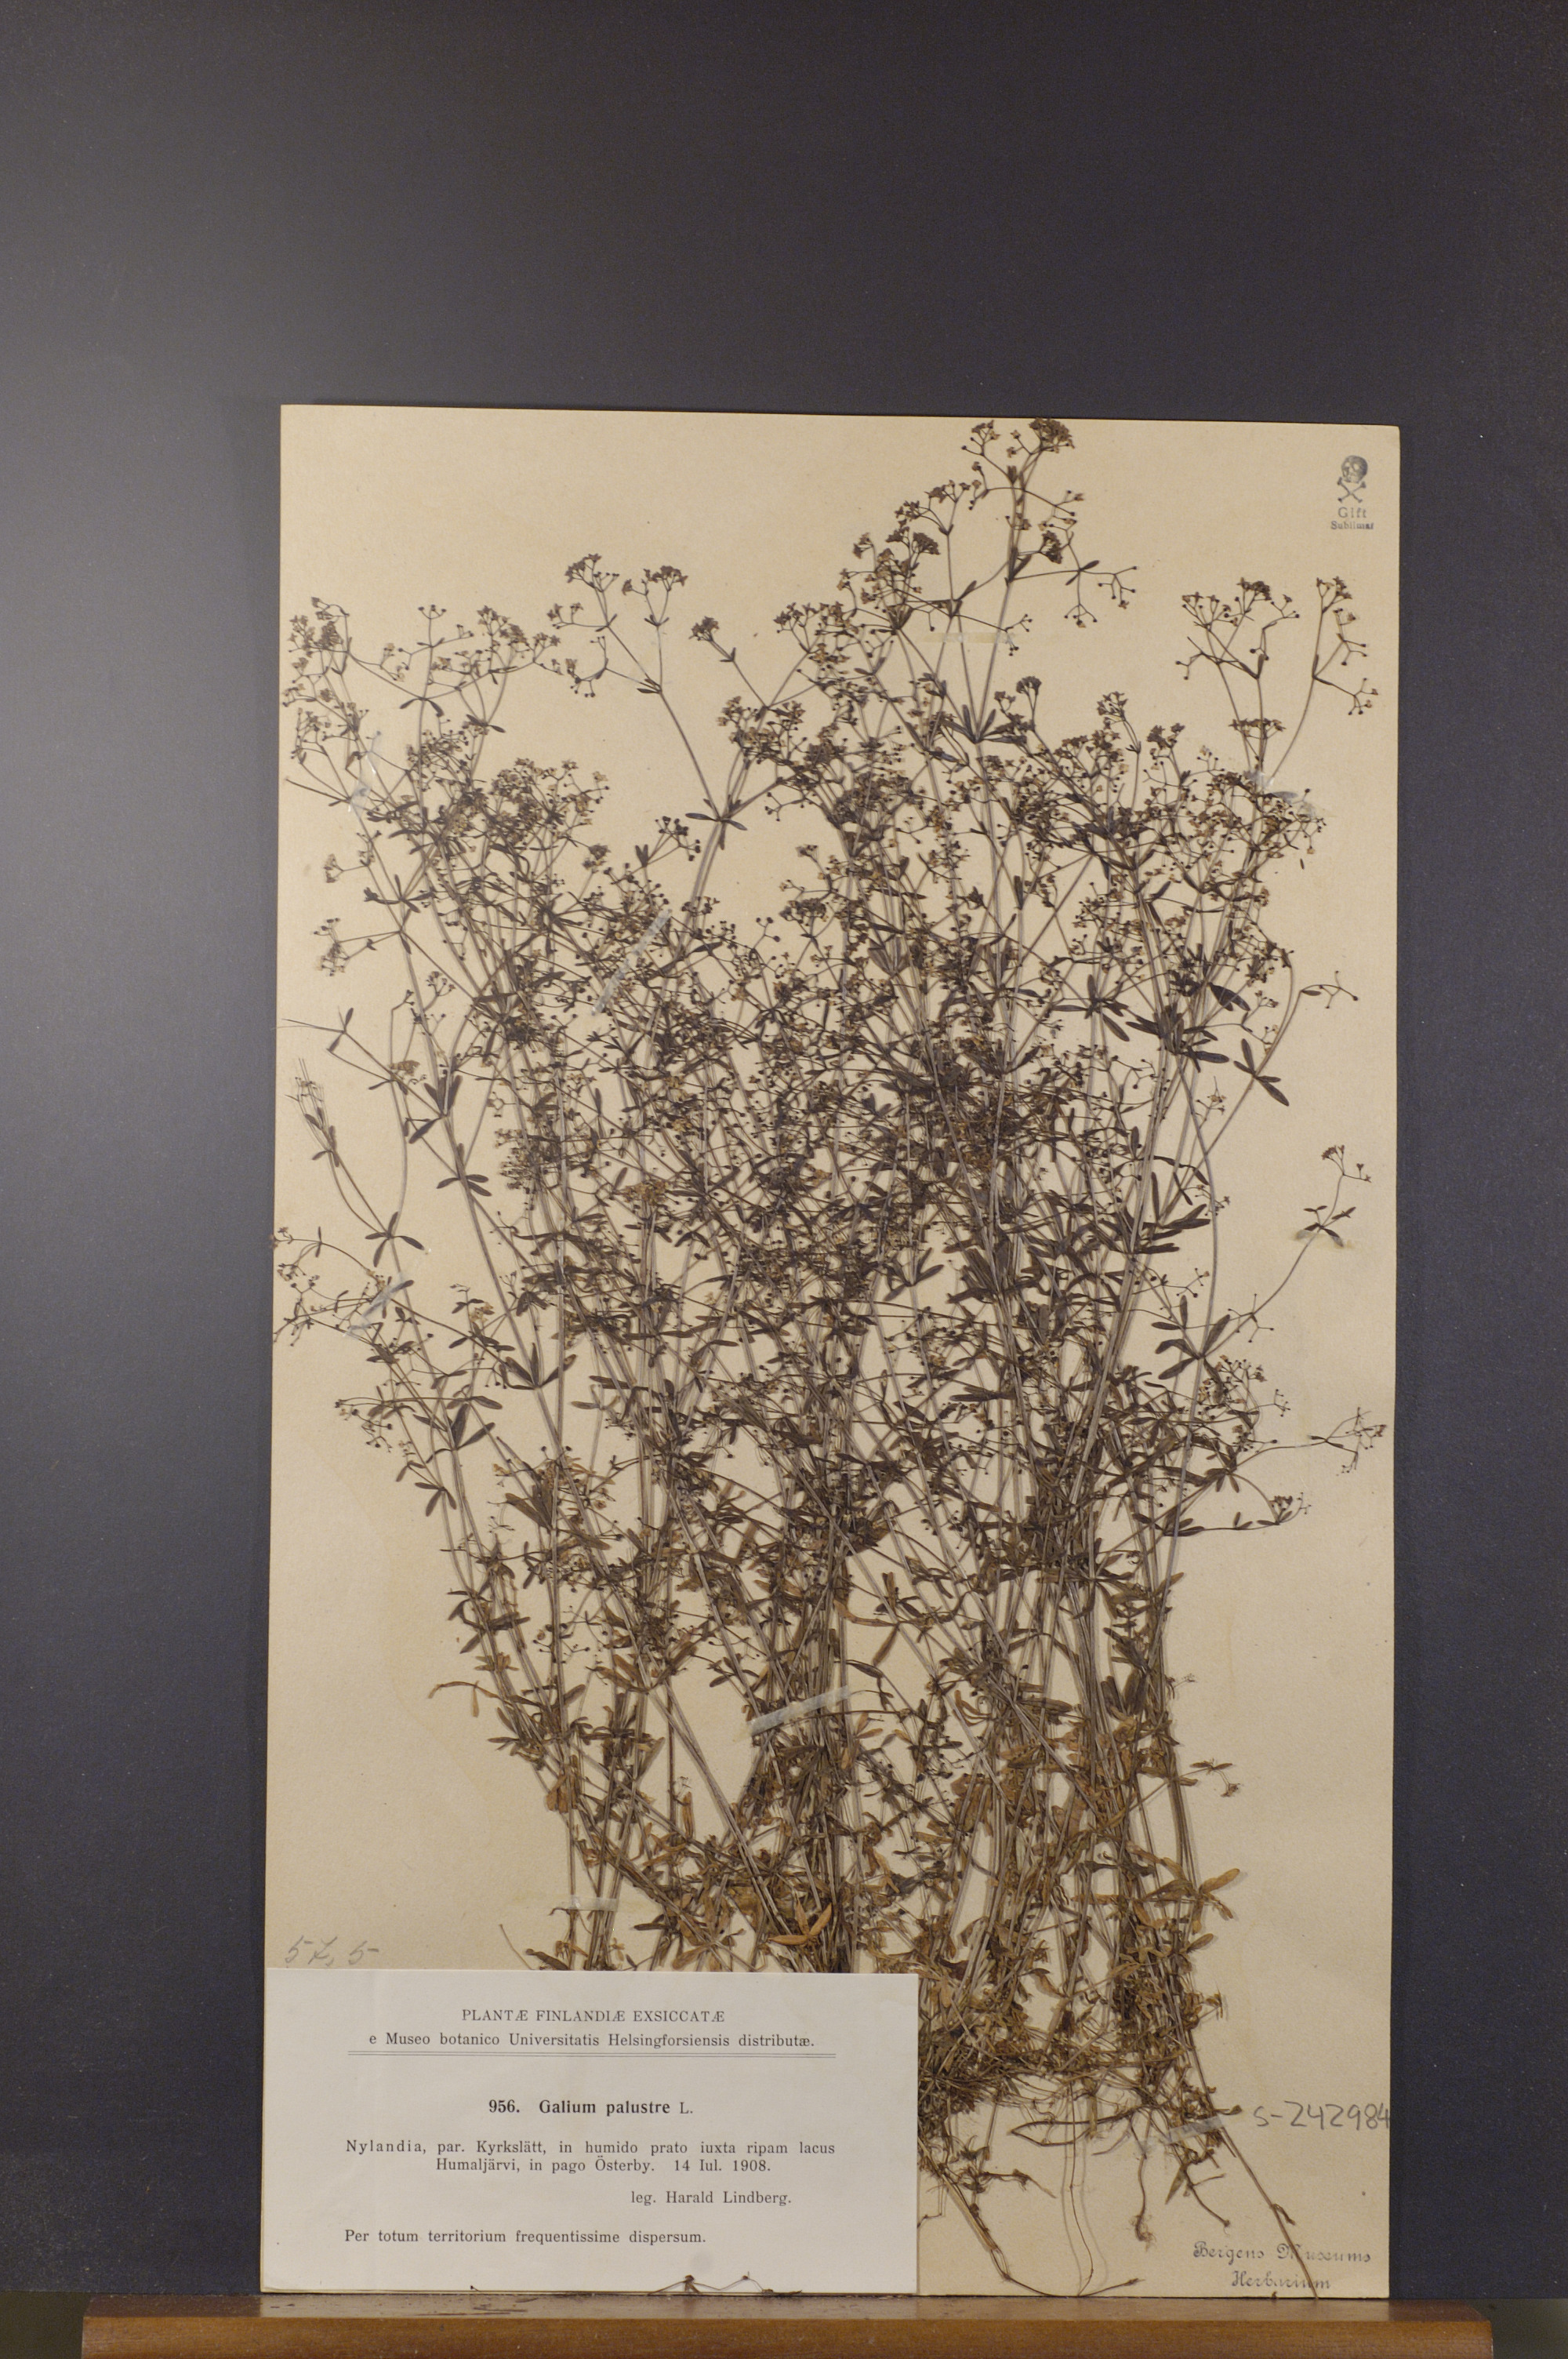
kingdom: Plantae
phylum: Tracheophyta
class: Magnoliopsida
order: Gentianales
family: Rubiaceae
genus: Galium
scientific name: Galium palustre
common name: Common marsh-bedstraw
